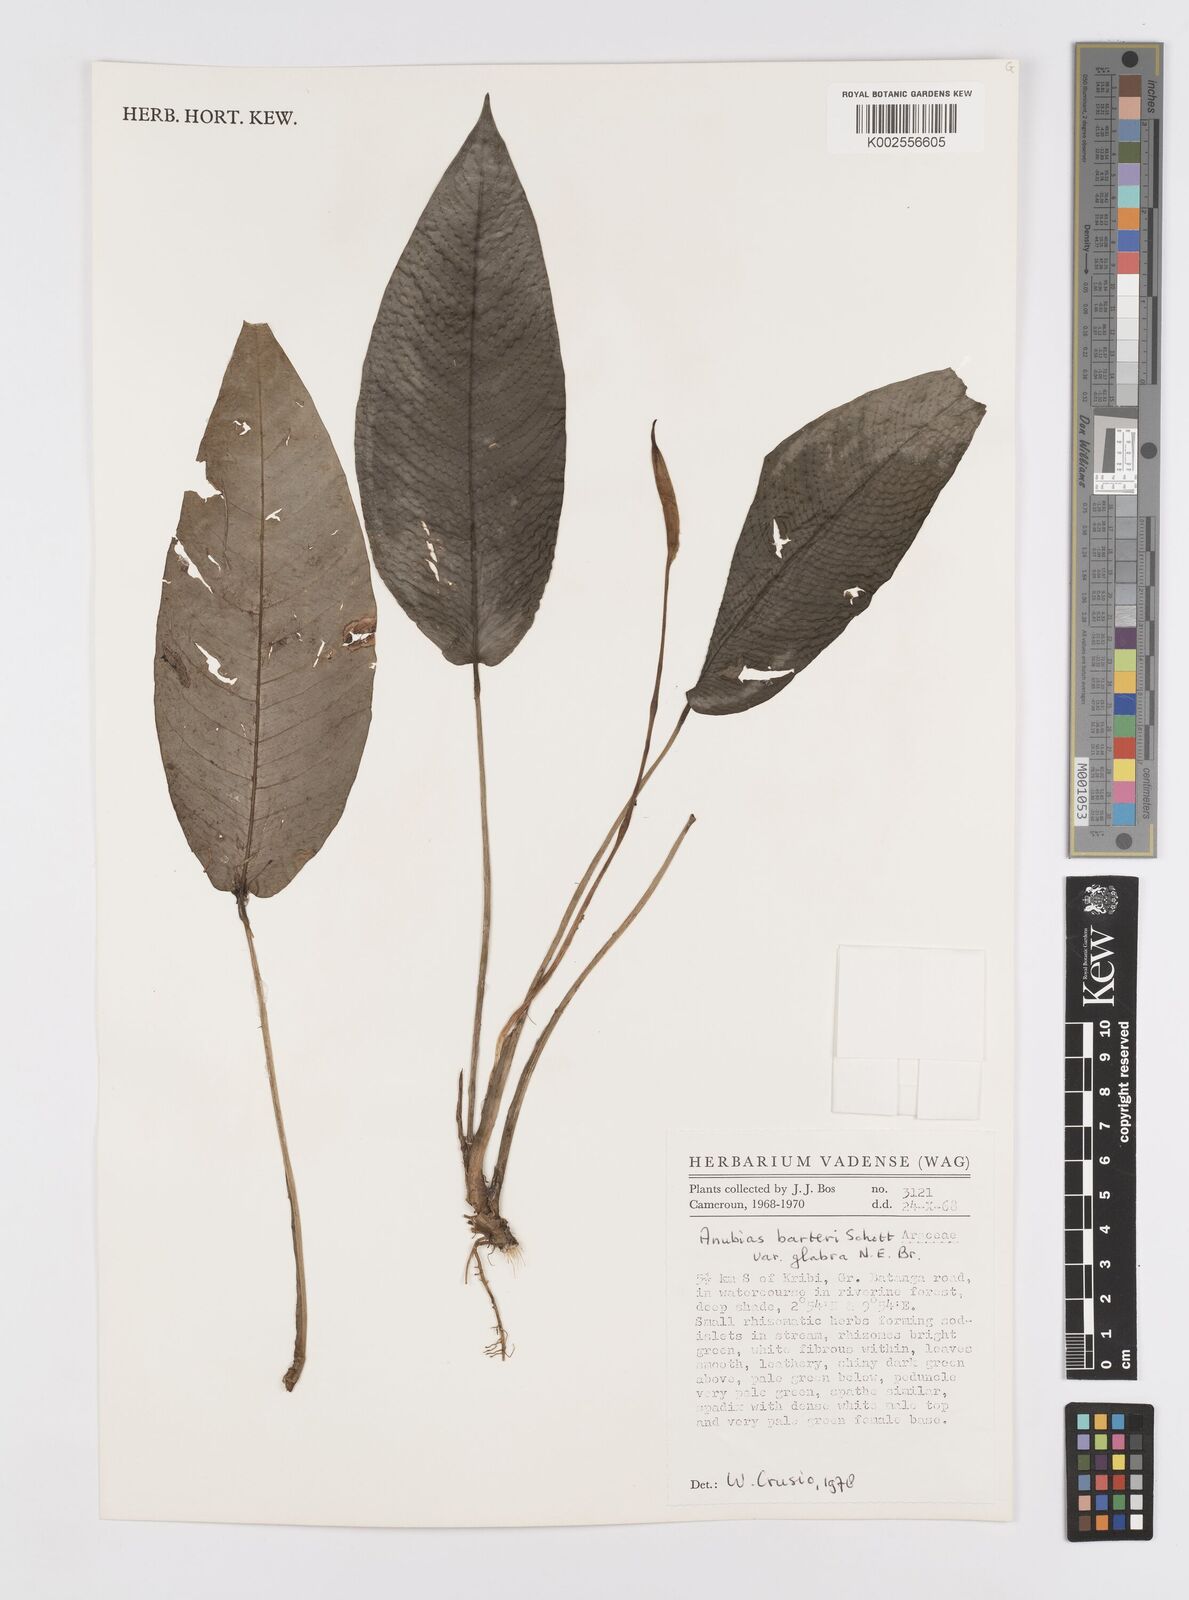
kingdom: Plantae
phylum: Tracheophyta
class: Liliopsida
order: Alismatales
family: Araceae
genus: Anubias
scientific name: Anubias barteri
